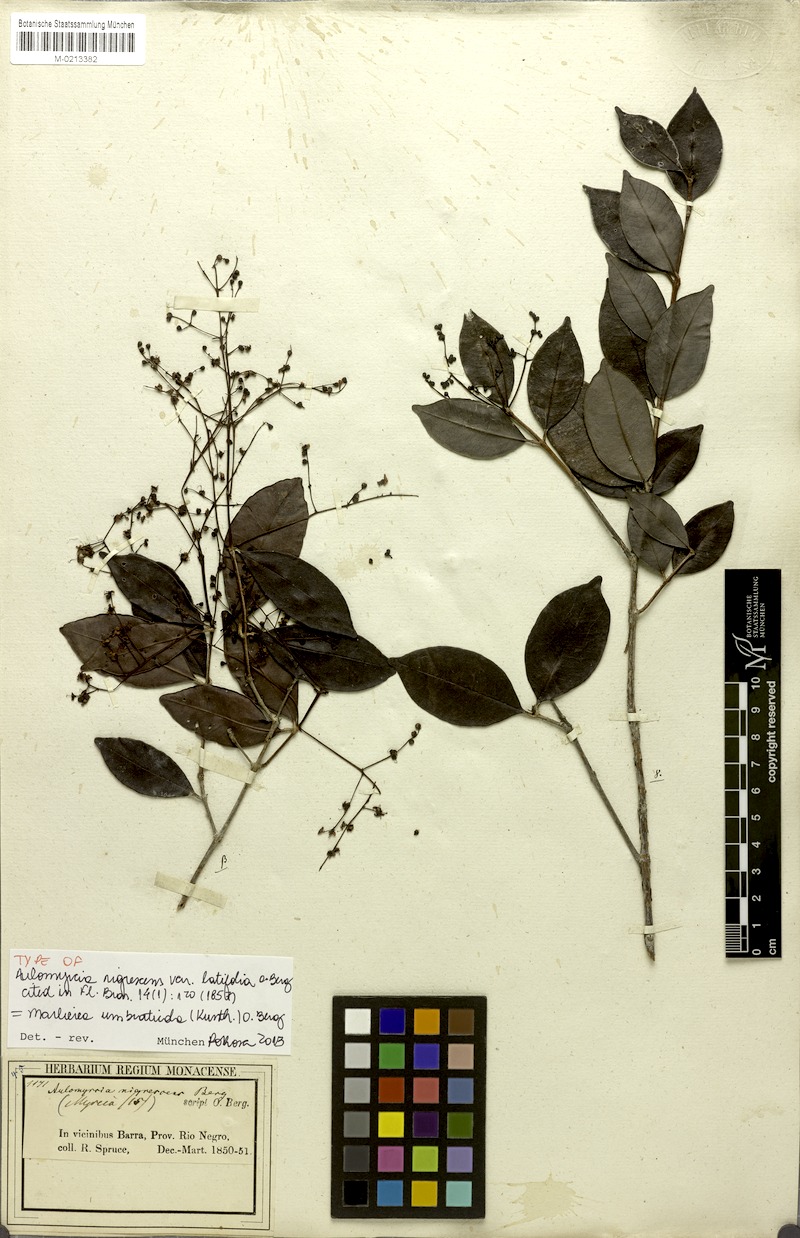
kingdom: Plantae
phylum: Tracheophyta
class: Magnoliopsida
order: Myrtales
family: Myrtaceae
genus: Myrcia
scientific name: Myrcia umbraticola
